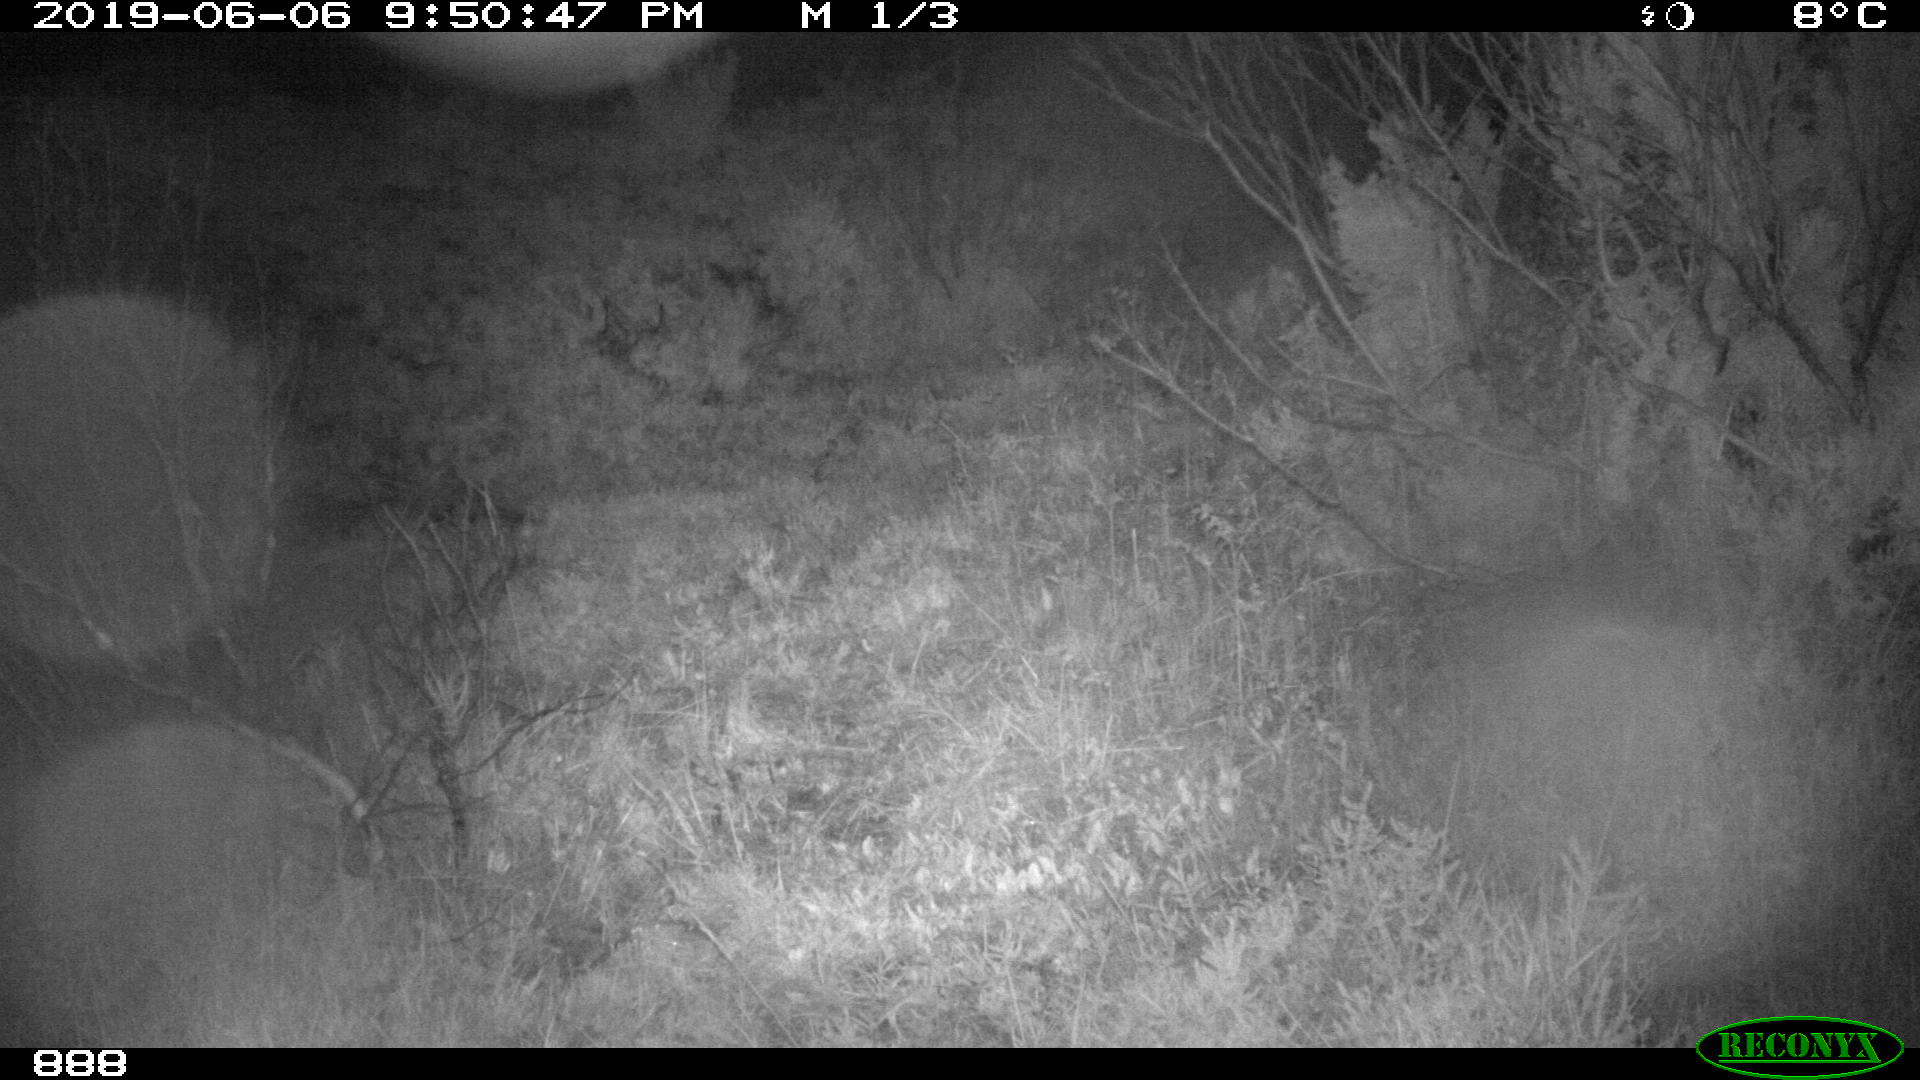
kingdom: Animalia
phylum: Chordata
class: Mammalia
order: Perissodactyla
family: Equidae
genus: Equus
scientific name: Equus caballus
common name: Horse
